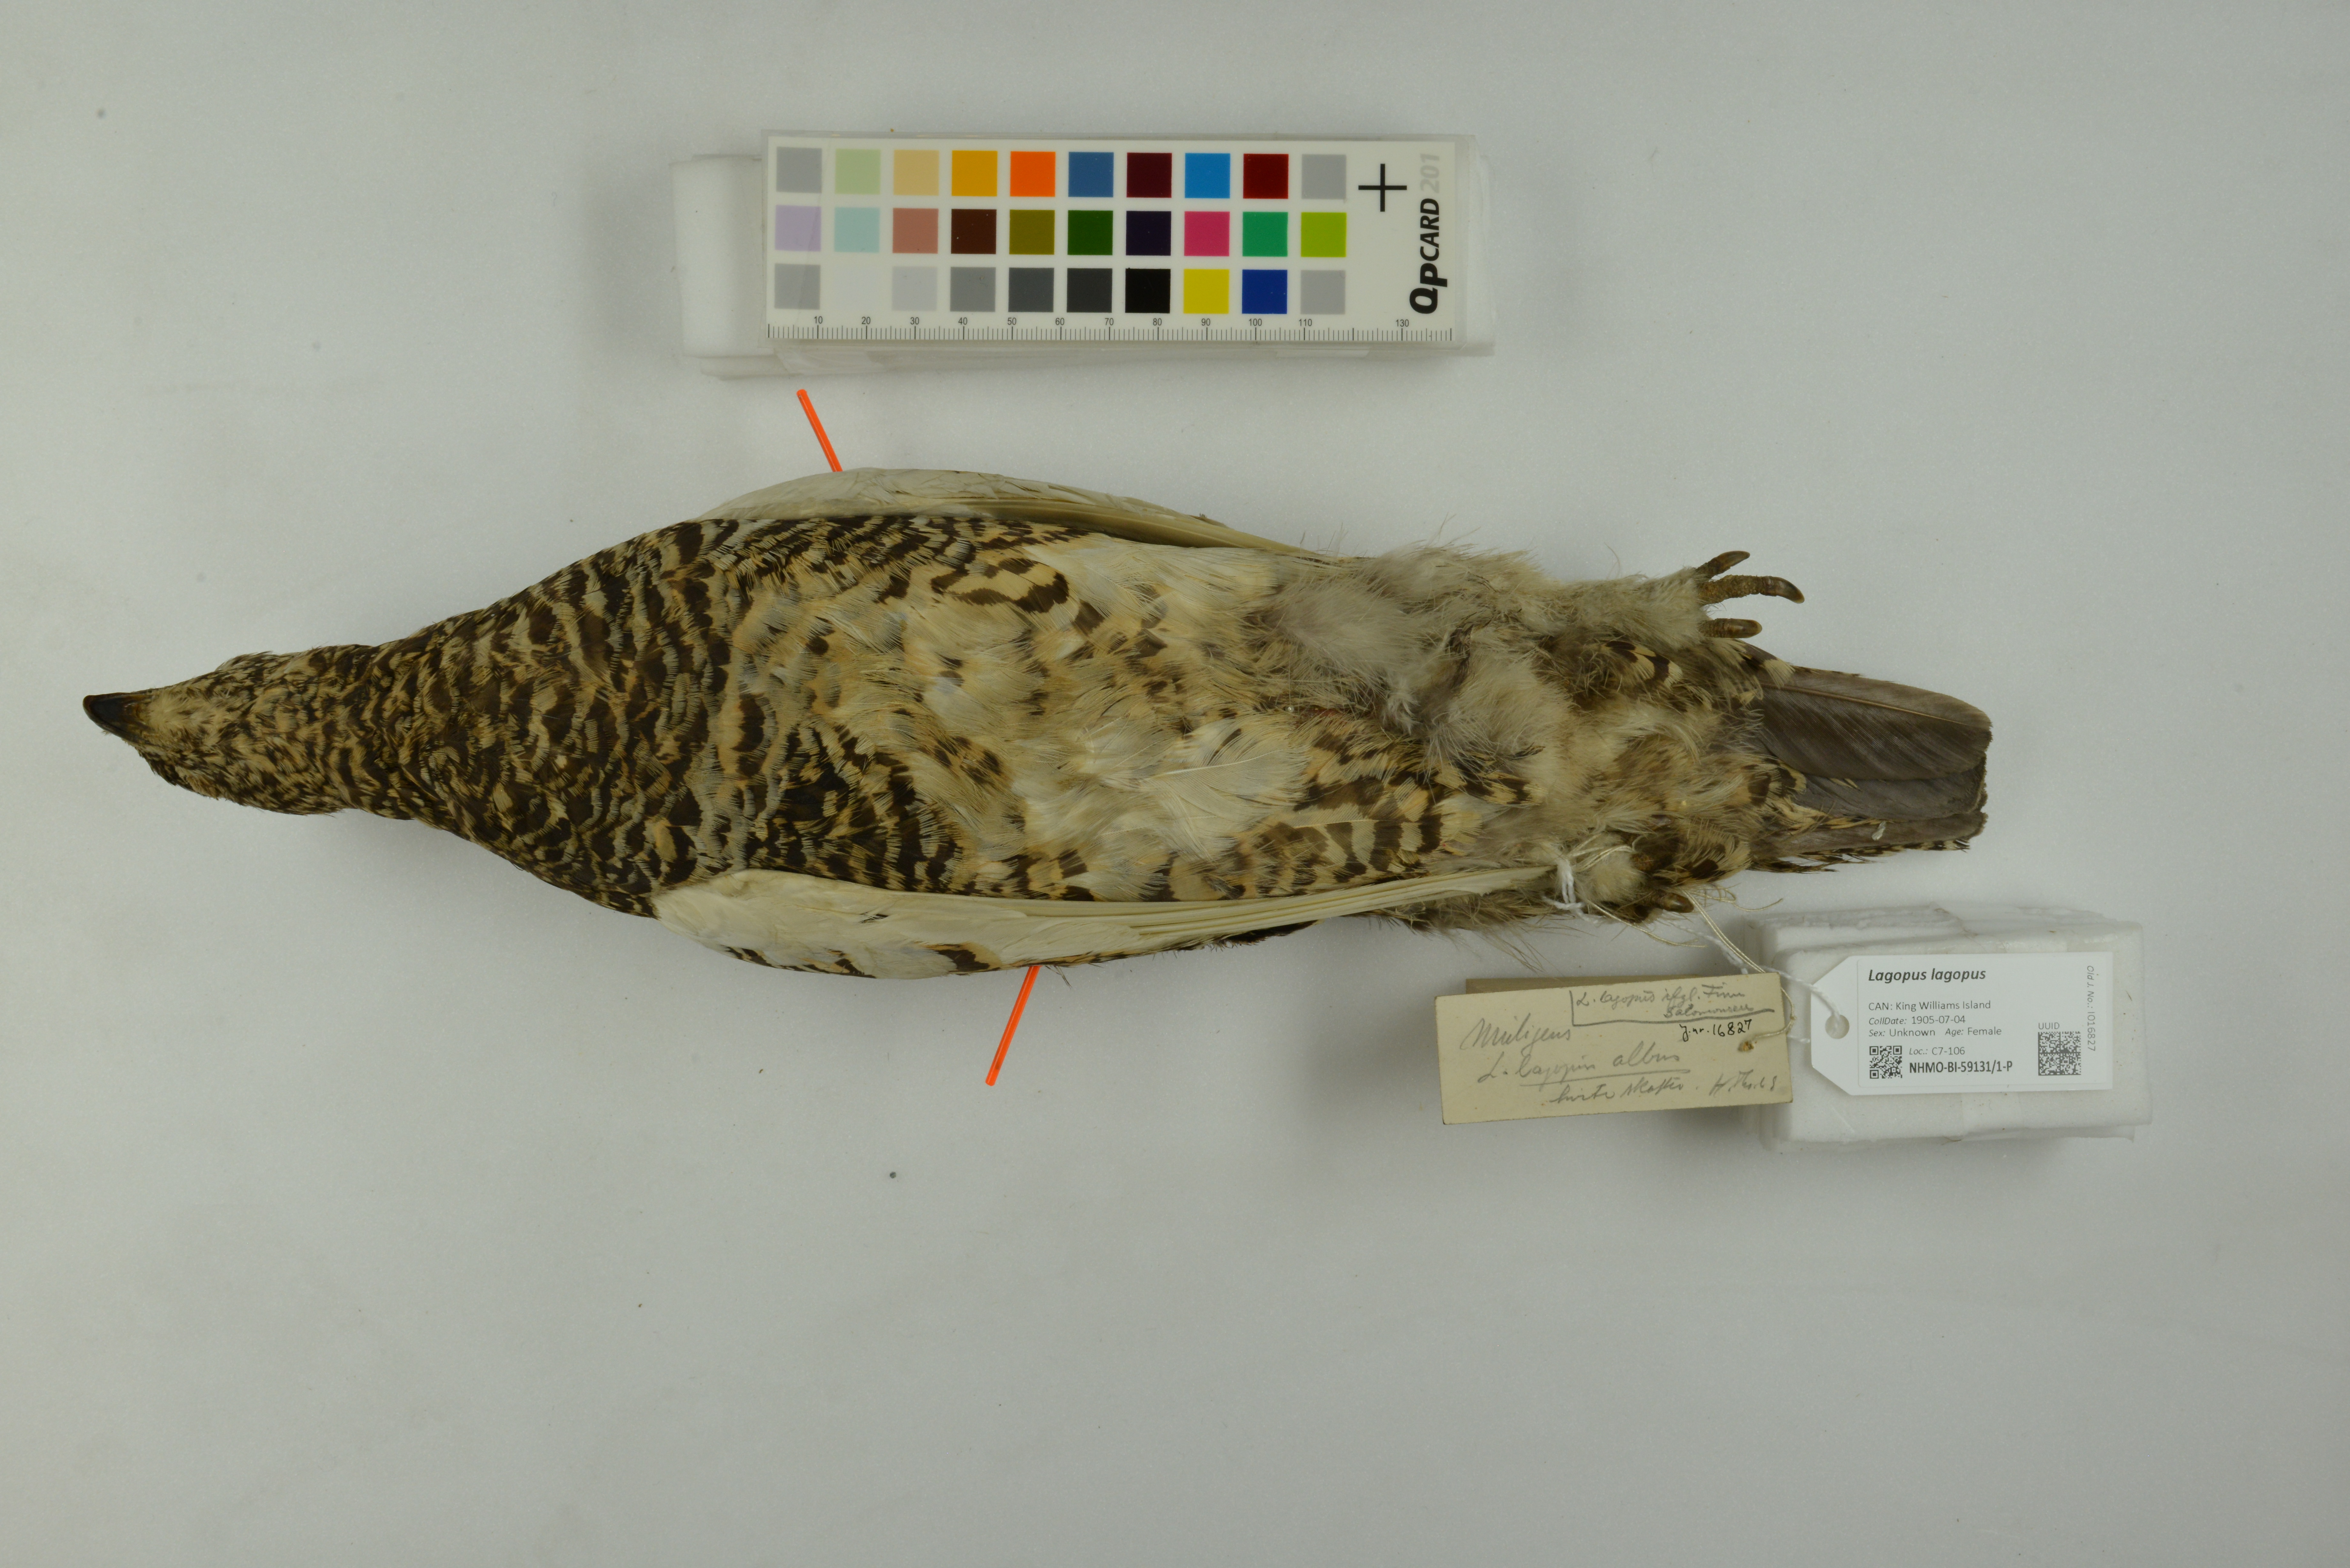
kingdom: Animalia
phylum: Chordata
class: Aves
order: Galliformes
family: Phasianidae
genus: Lagopus
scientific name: Lagopus lagopus
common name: Willow ptarmigan
